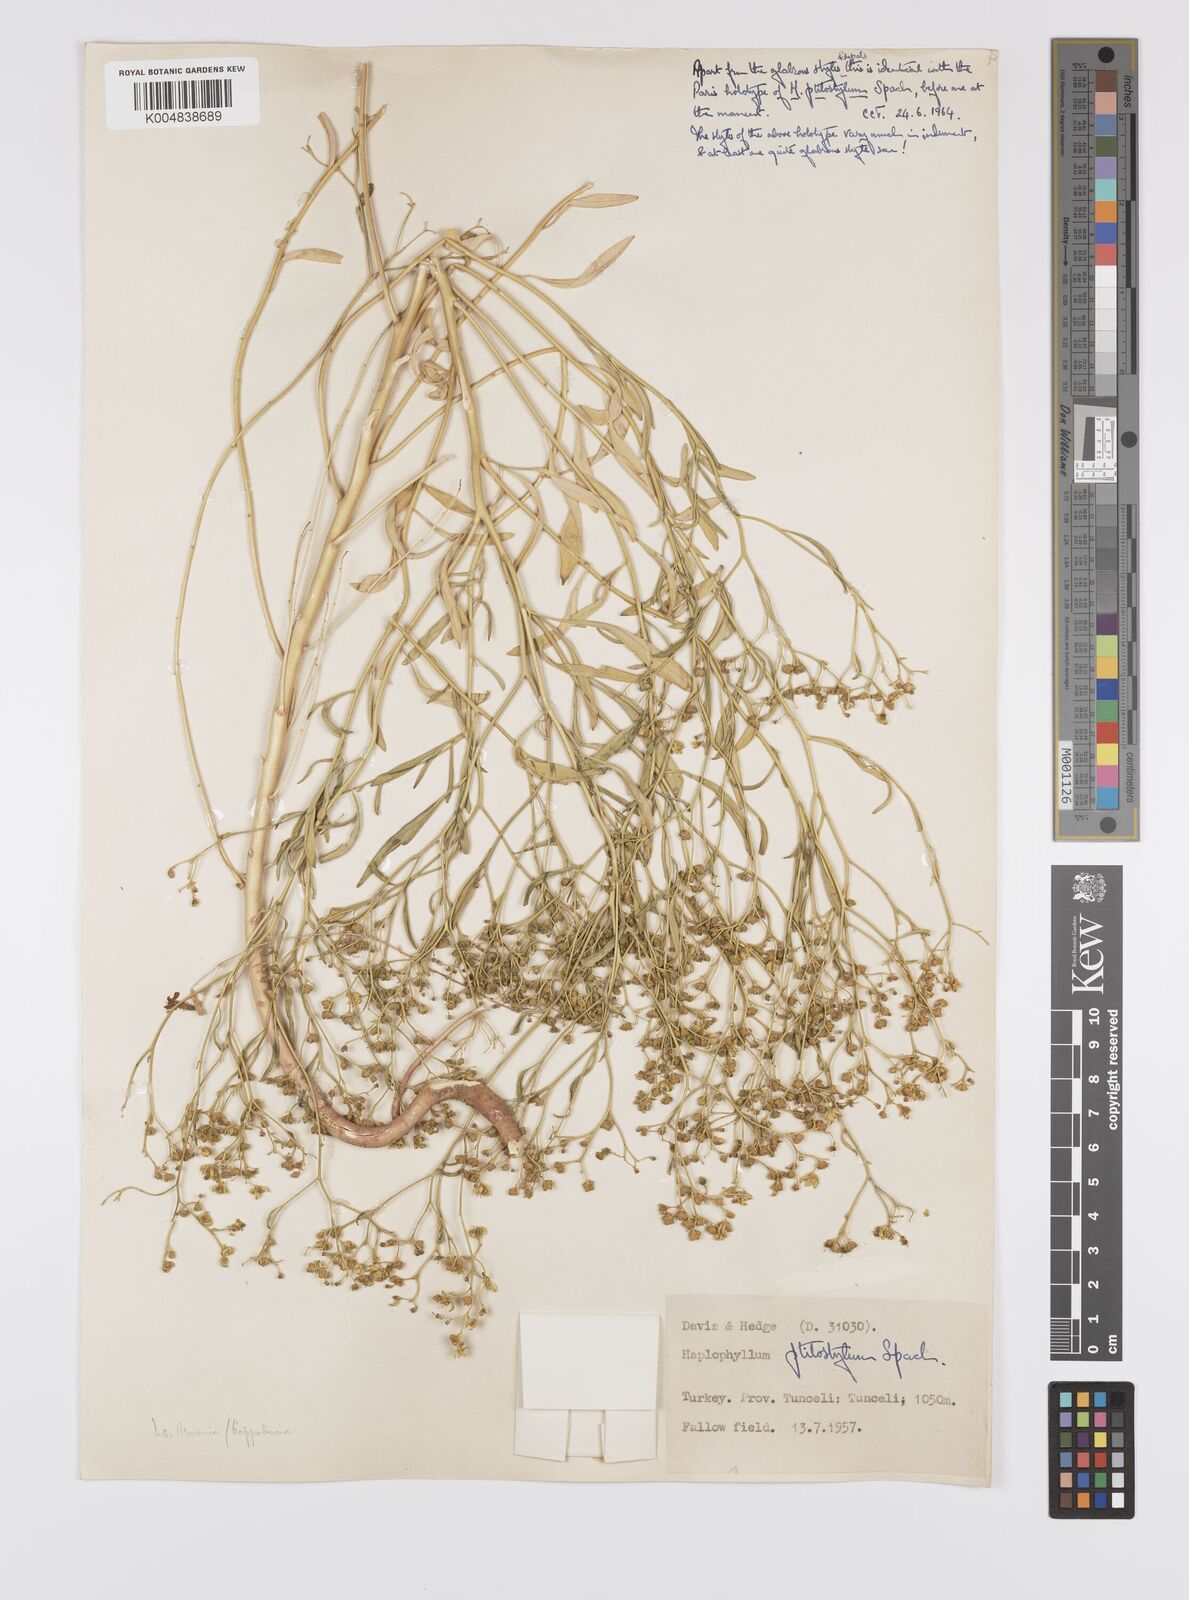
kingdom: Plantae
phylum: Tracheophyta
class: Magnoliopsida
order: Sapindales
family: Rutaceae
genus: Haplophyllum
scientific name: Haplophyllum ptilostylum
